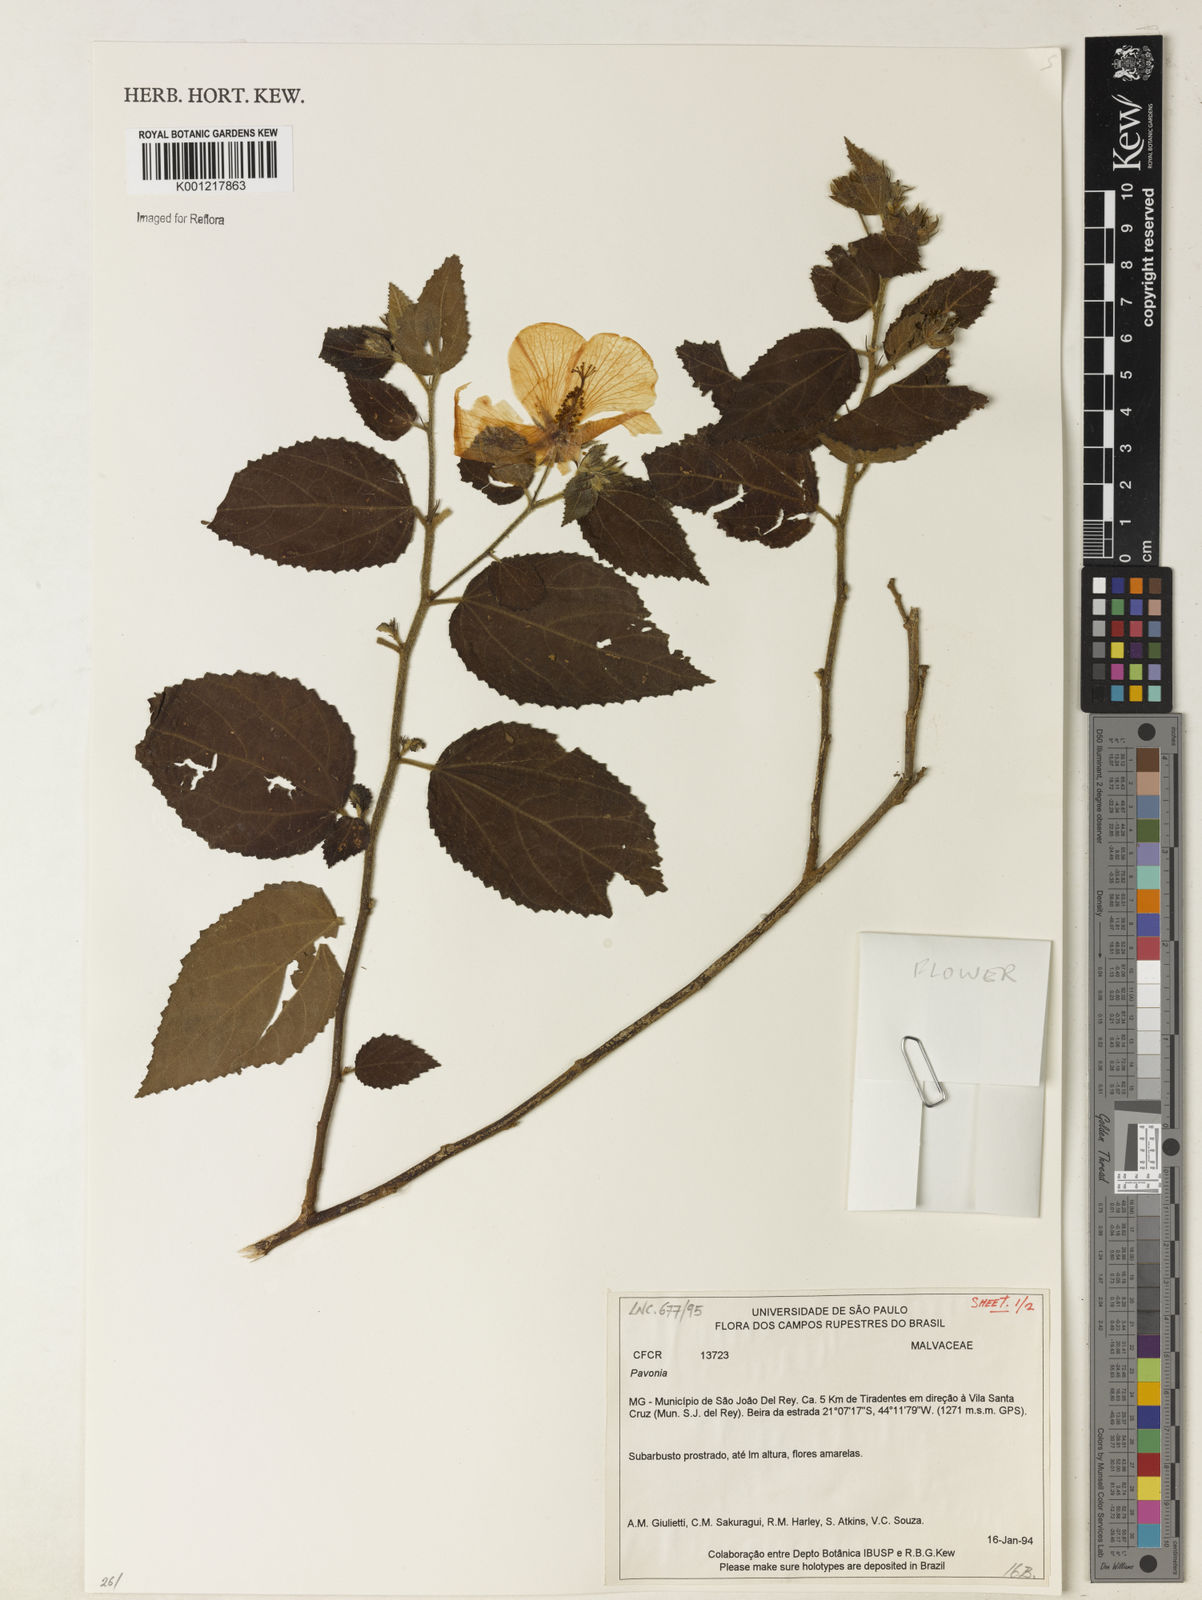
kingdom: Plantae
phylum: Tracheophyta
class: Magnoliopsida
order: Malvales
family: Malvaceae
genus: Pavonia
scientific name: Pavonia
